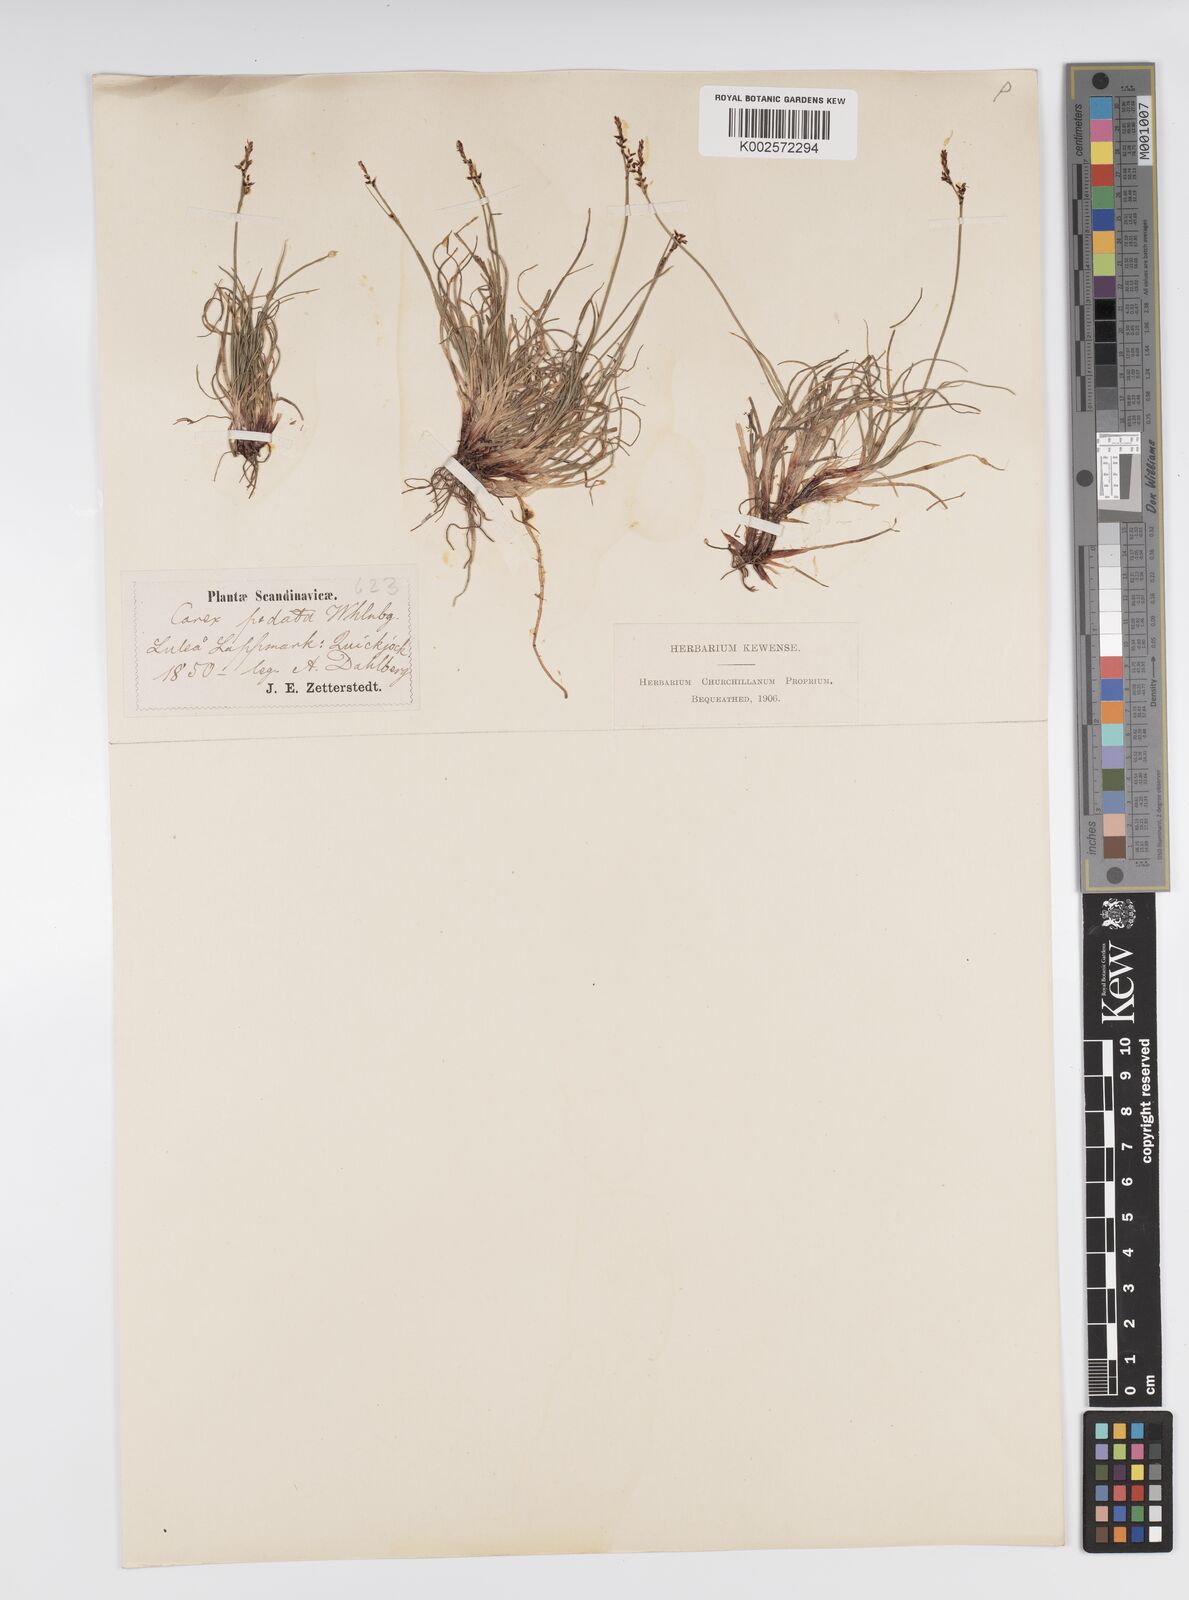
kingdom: Plantae
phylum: Tracheophyta
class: Liliopsida
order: Poales
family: Cyperaceae
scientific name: Cyperaceae
